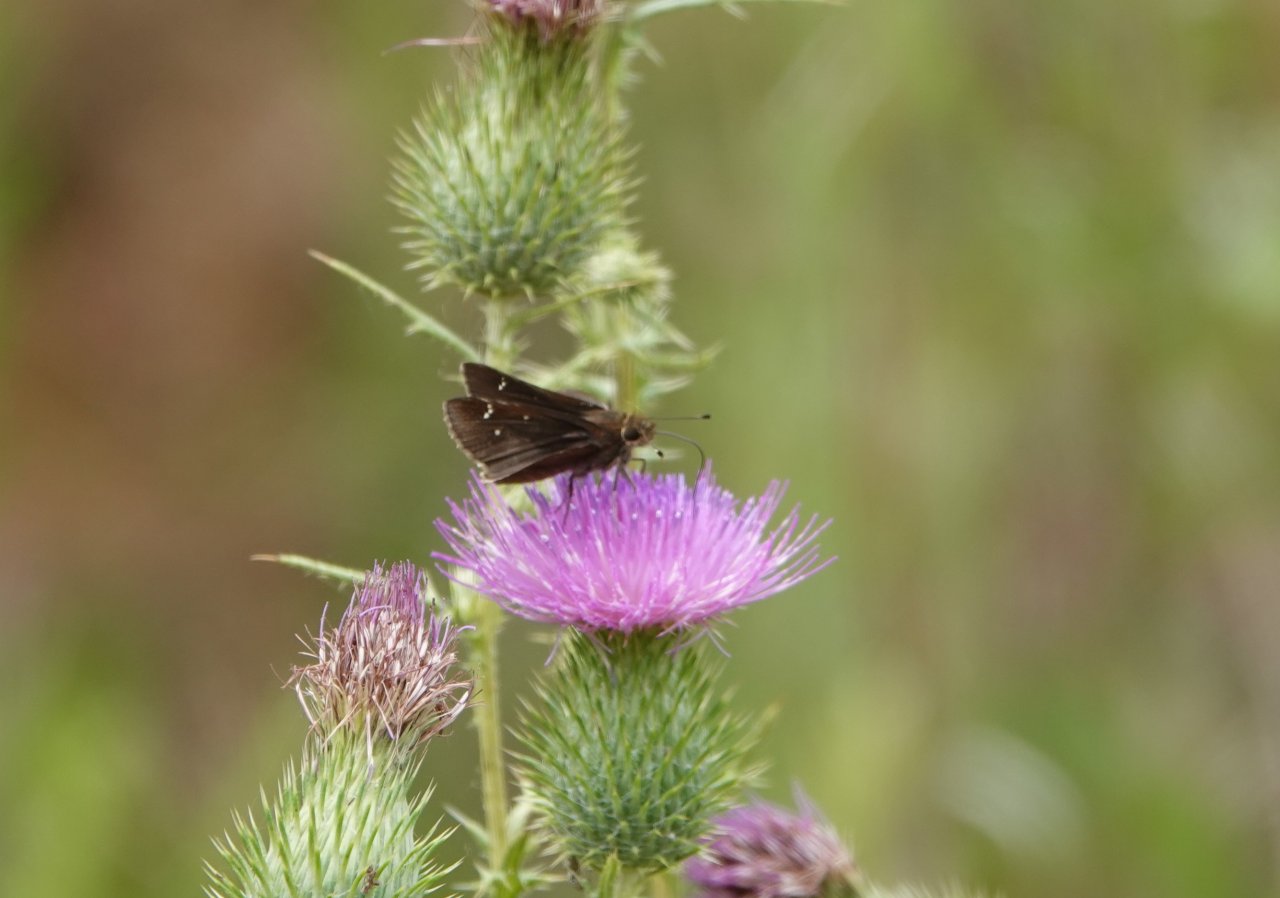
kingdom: Animalia
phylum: Arthropoda
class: Insecta
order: Lepidoptera
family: Hesperiidae
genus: Lerema
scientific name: Lerema accius
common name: Clouded Skipper
